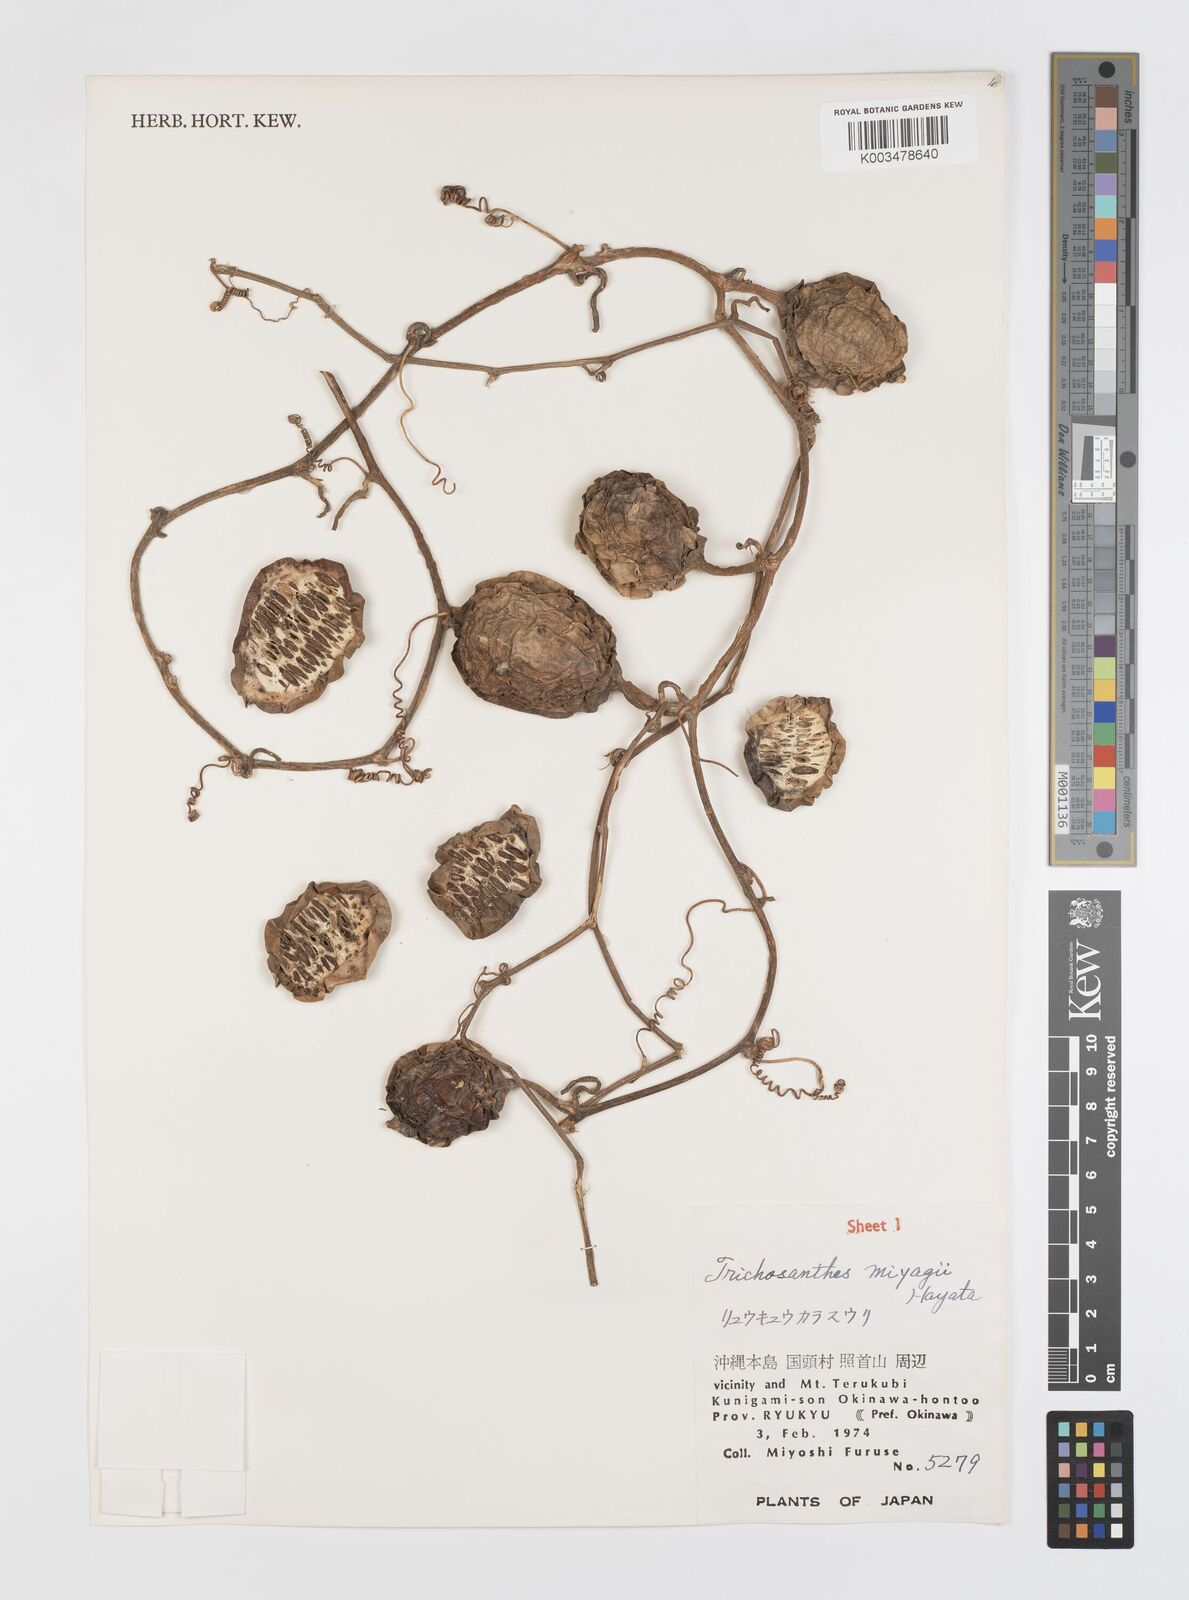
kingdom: Plantae
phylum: Tracheophyta
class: Magnoliopsida
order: Cucurbitales
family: Cucurbitaceae
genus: Trichosanthes
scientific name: Trichosanthes miyagii
